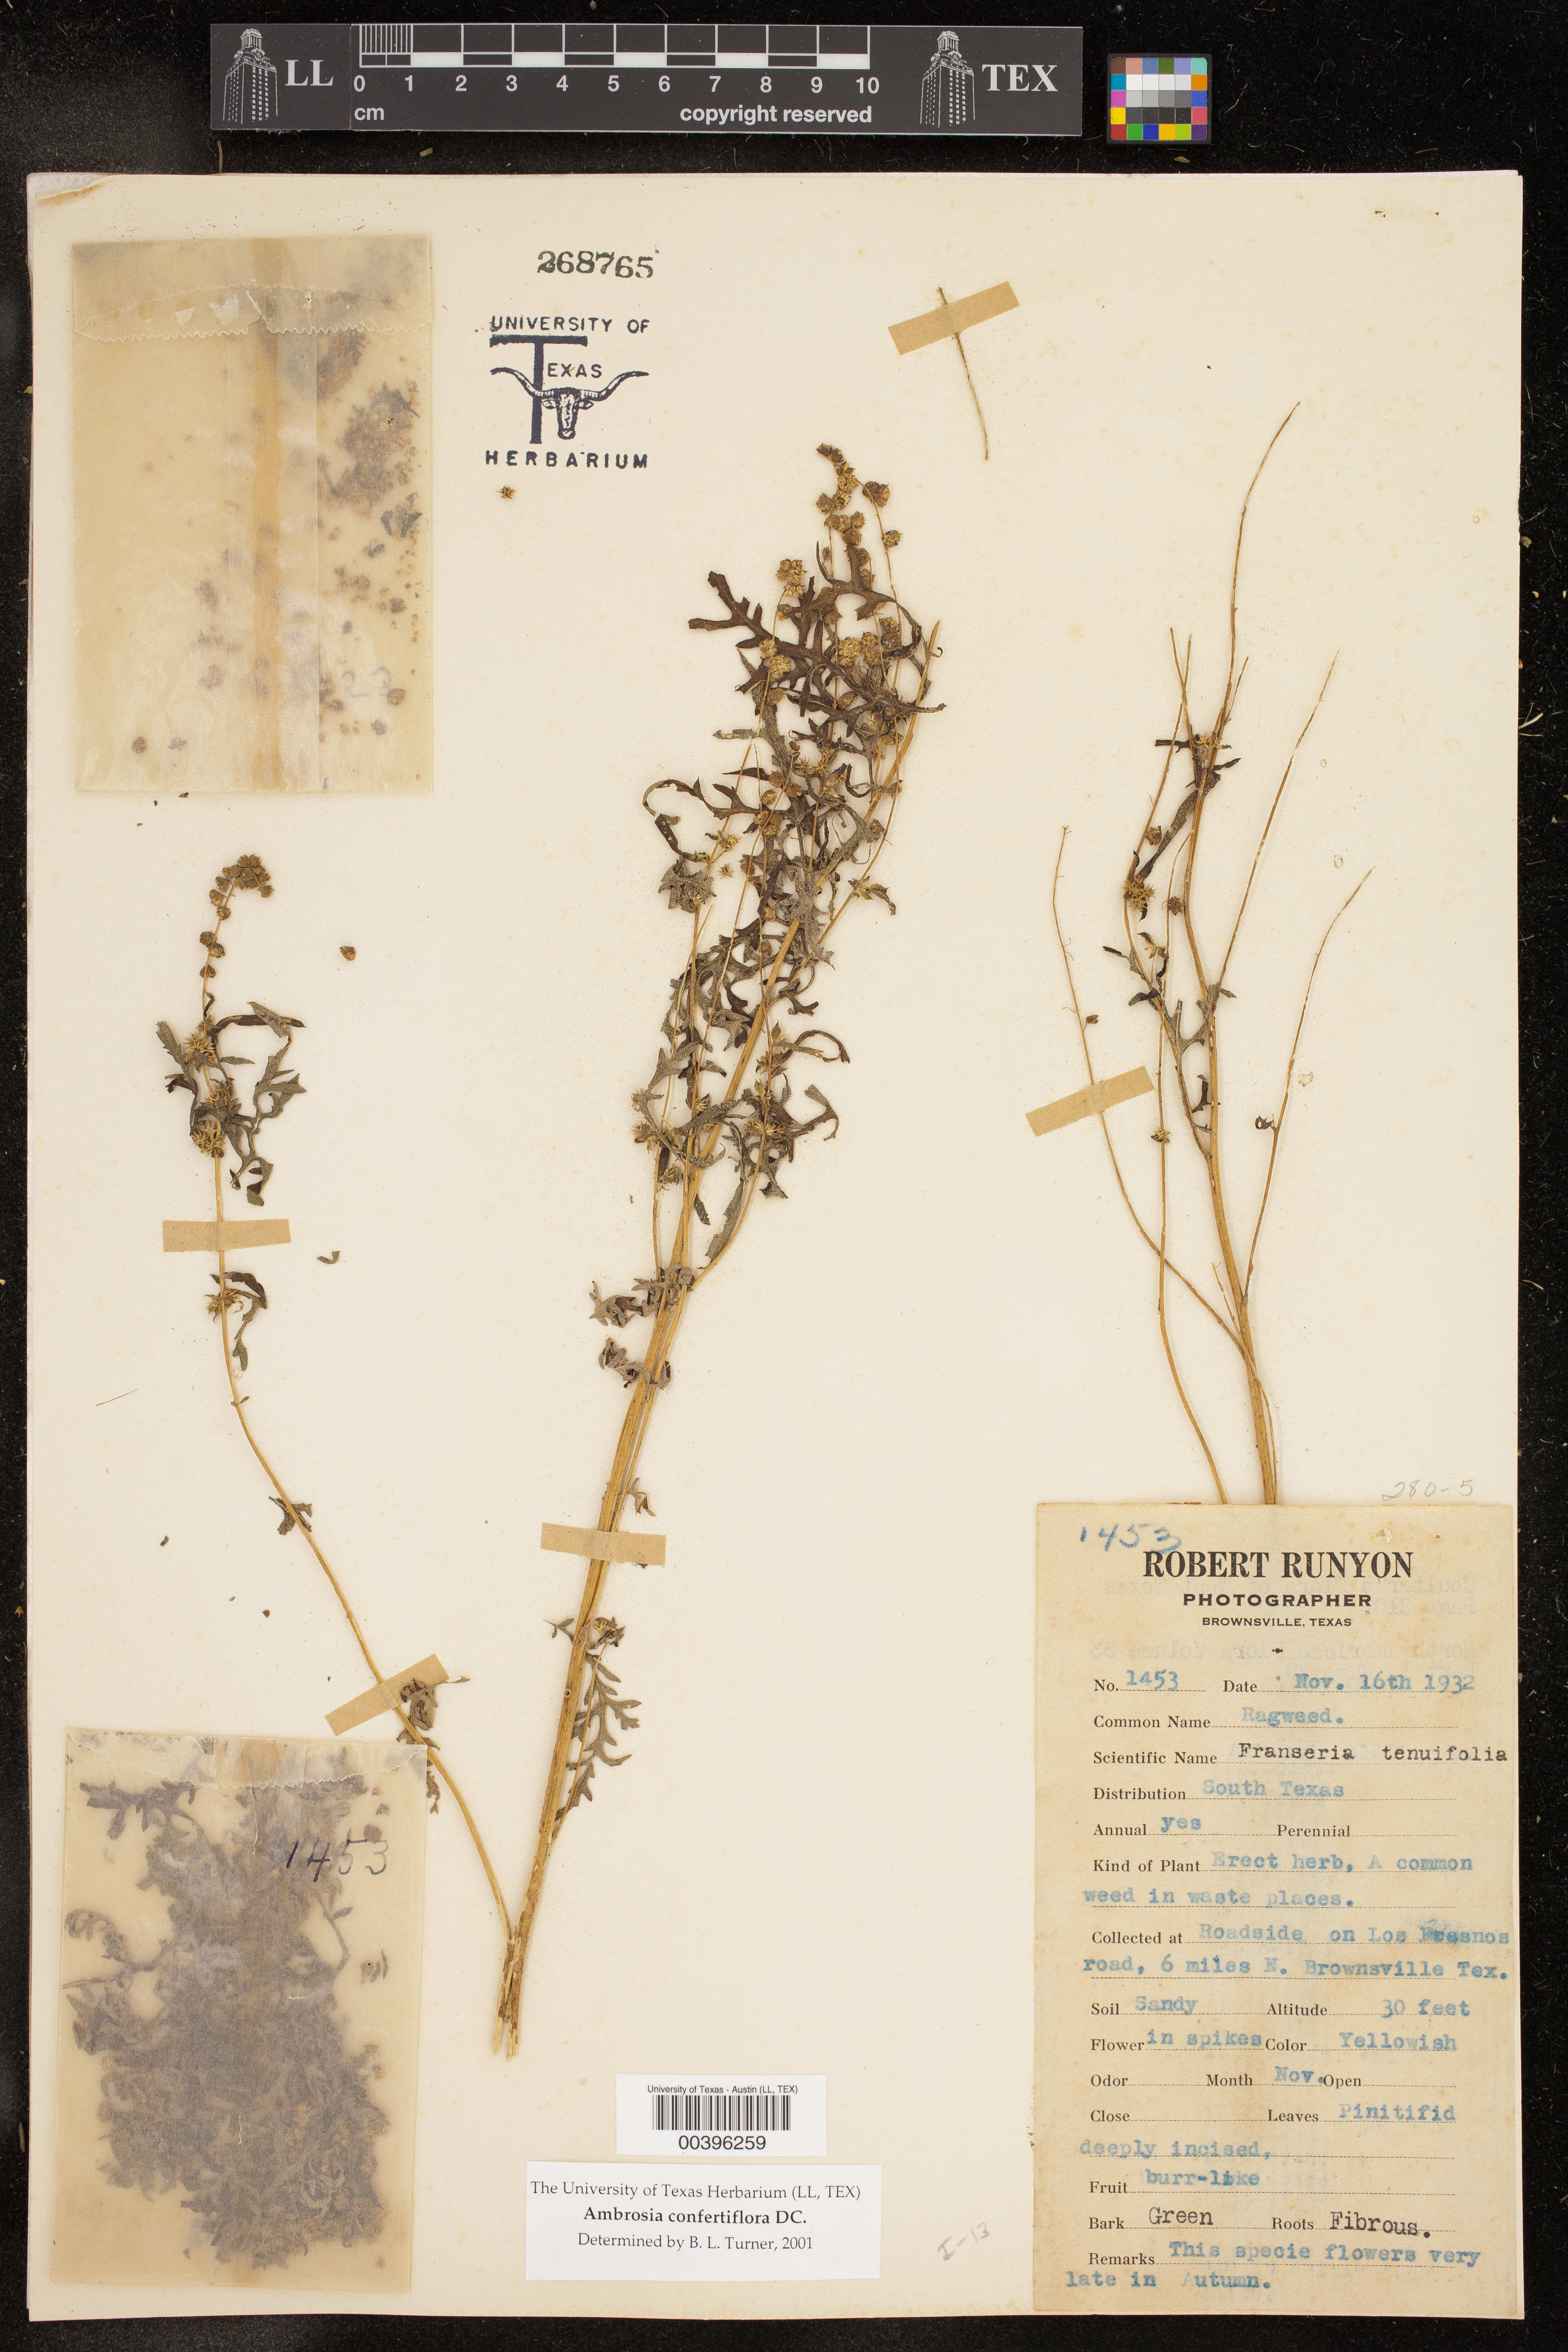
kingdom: Plantae
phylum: Tracheophyta
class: Magnoliopsida
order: Asterales
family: Asteraceae
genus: Ambrosia
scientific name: Ambrosia confertiflora
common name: Bur ragweed
